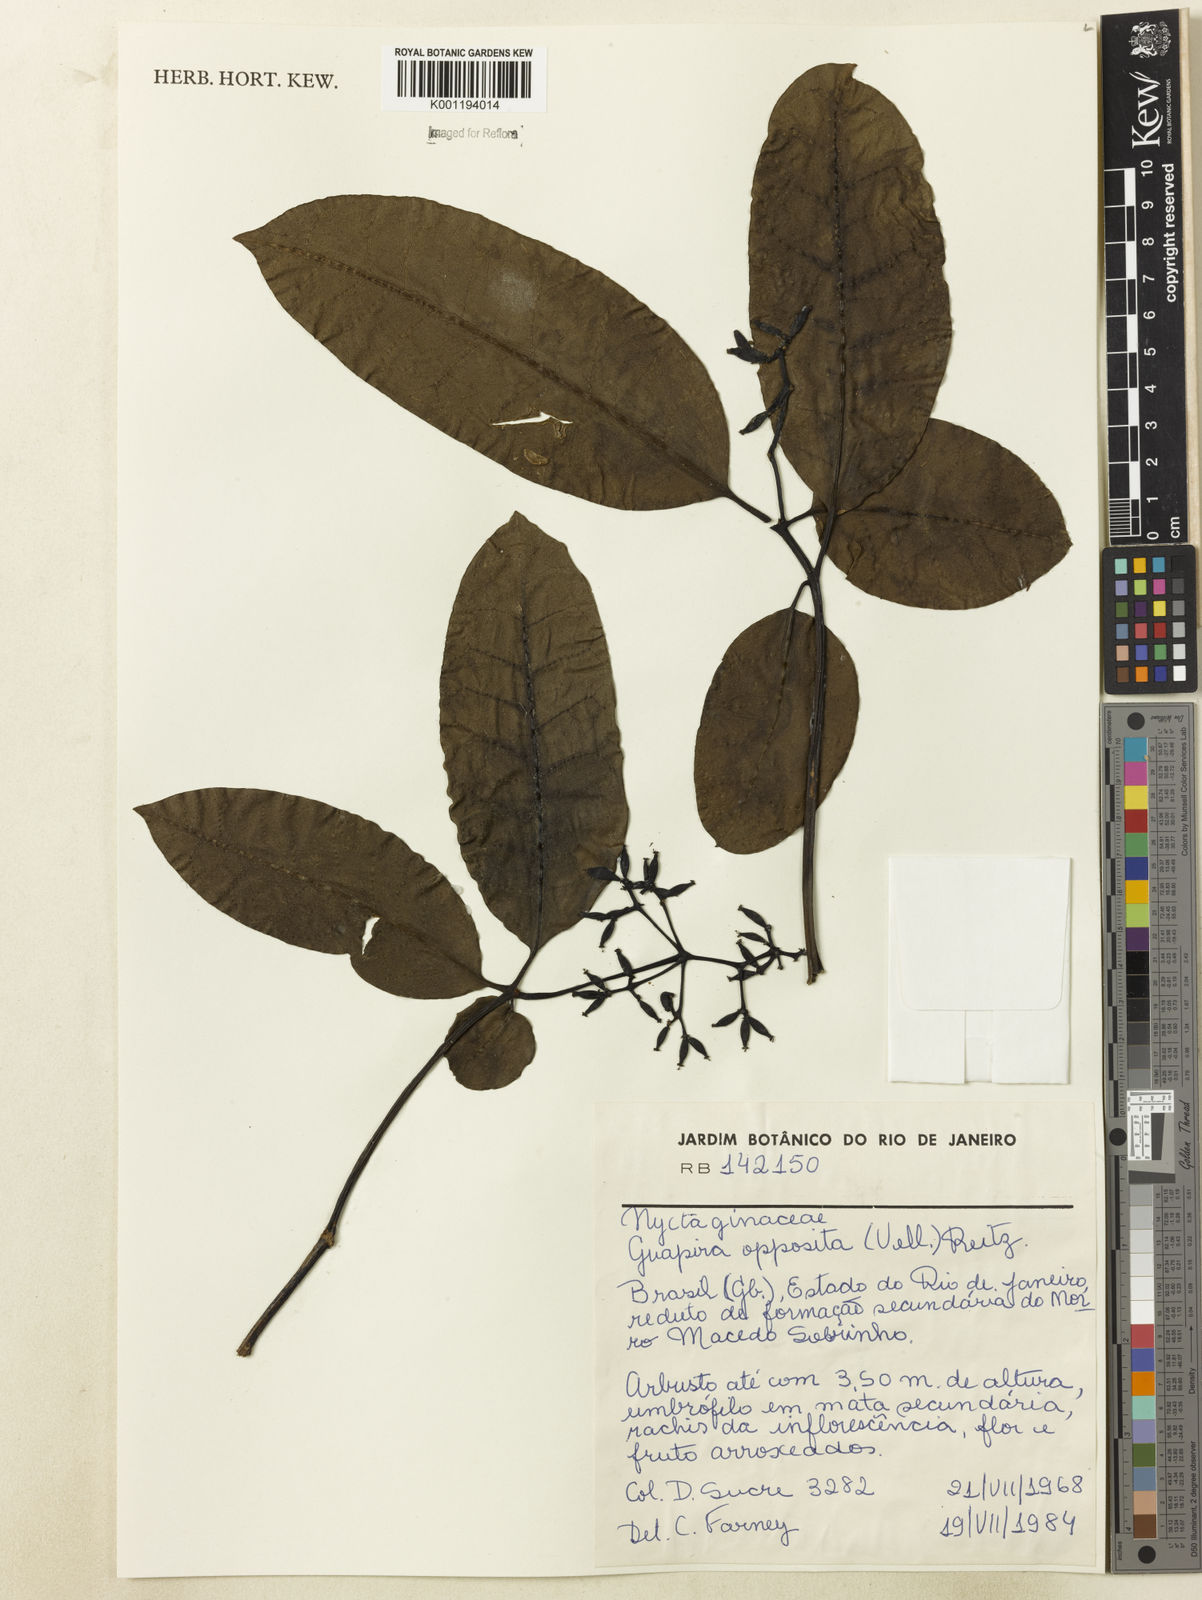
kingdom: Plantae
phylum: Tracheophyta
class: Magnoliopsida
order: Caryophyllales
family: Nyctaginaceae
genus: Guapira
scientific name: Guapira opposita
